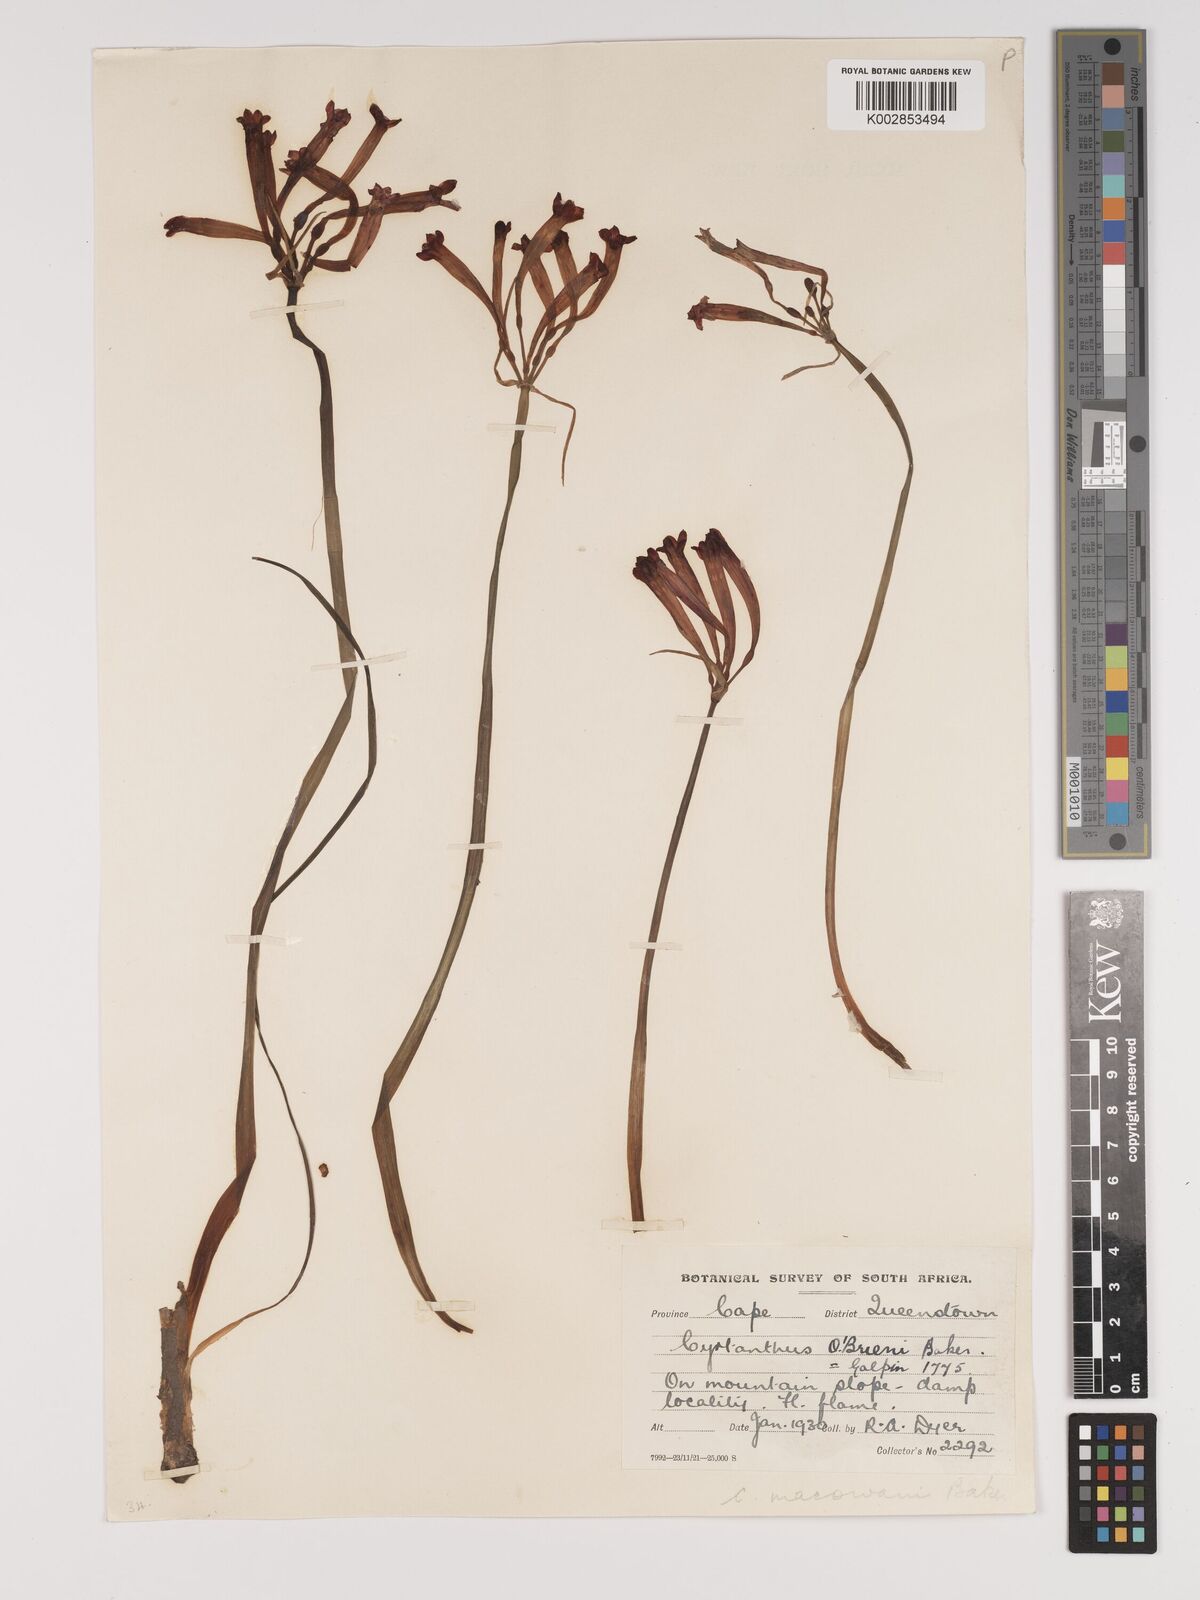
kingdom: Plantae
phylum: Tracheophyta
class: Liliopsida
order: Asparagales
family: Amaryllidaceae
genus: Cyrtanthus
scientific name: Cyrtanthus macowanii
